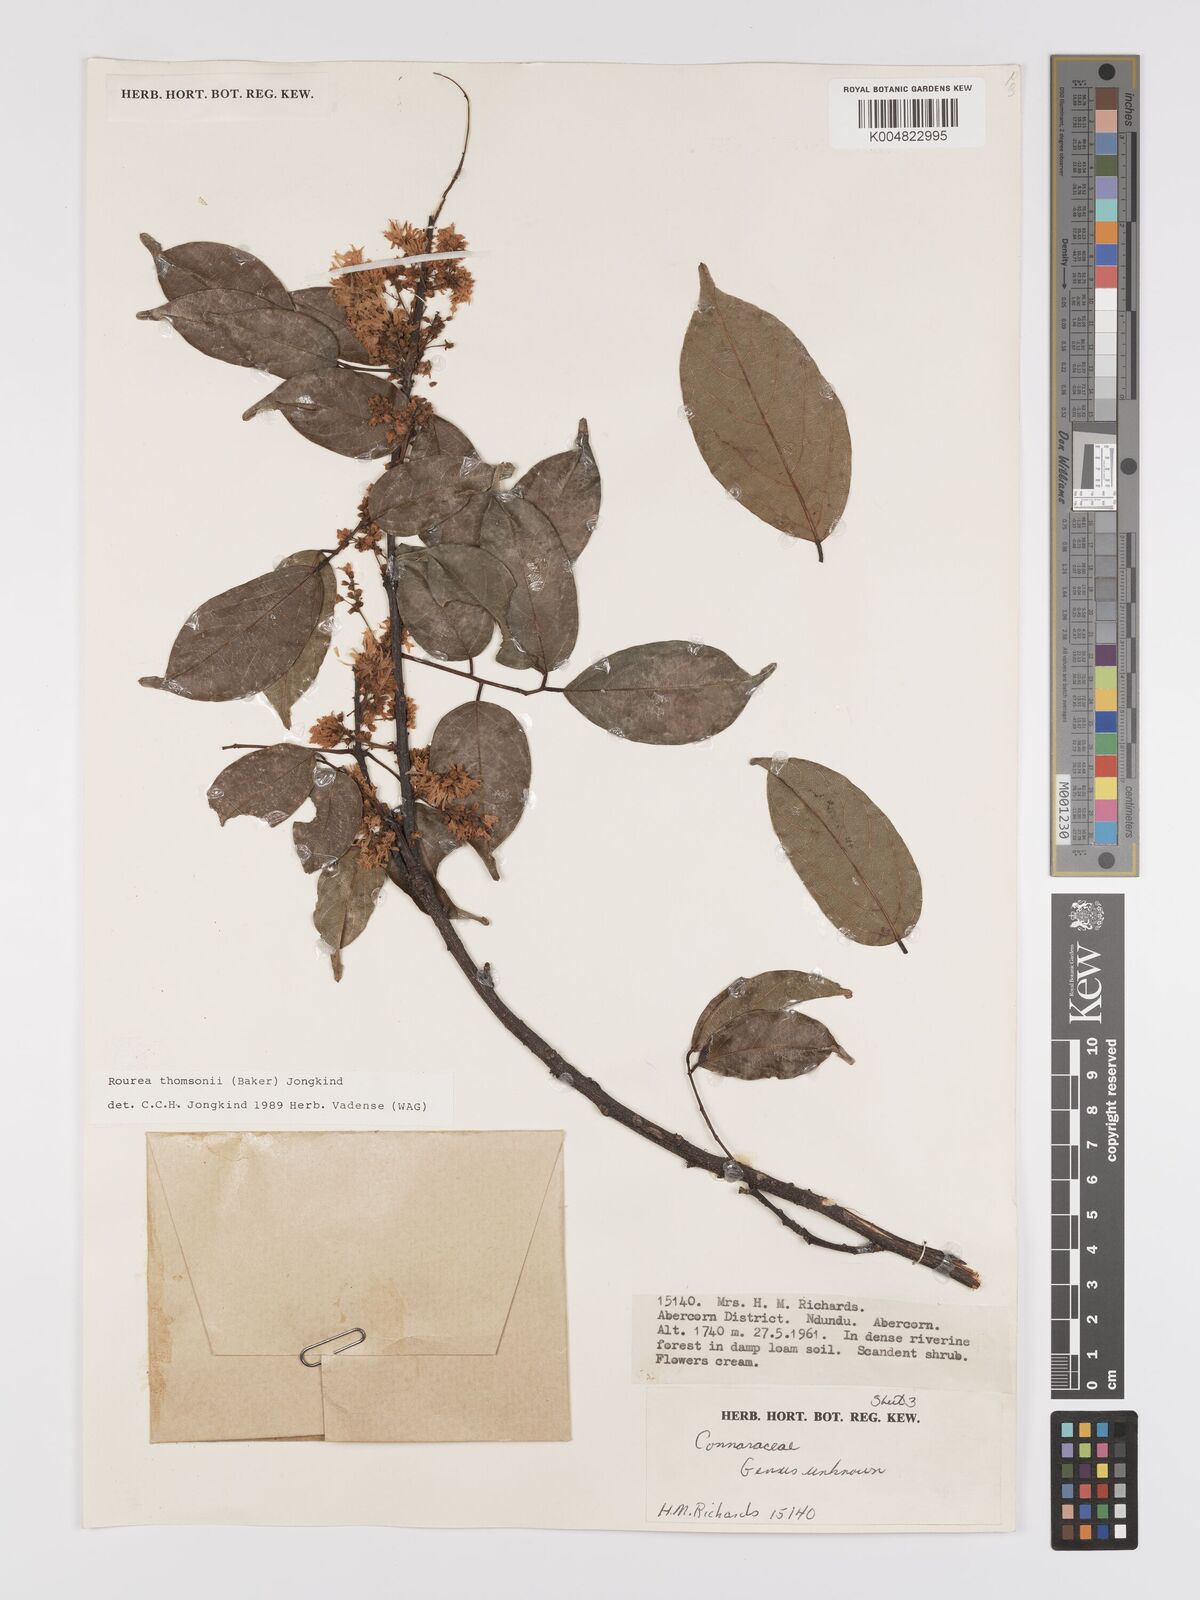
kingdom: Plantae
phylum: Tracheophyta
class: Magnoliopsida
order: Oxalidales
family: Connaraceae
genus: Rourea
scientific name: Rourea thomsonii
